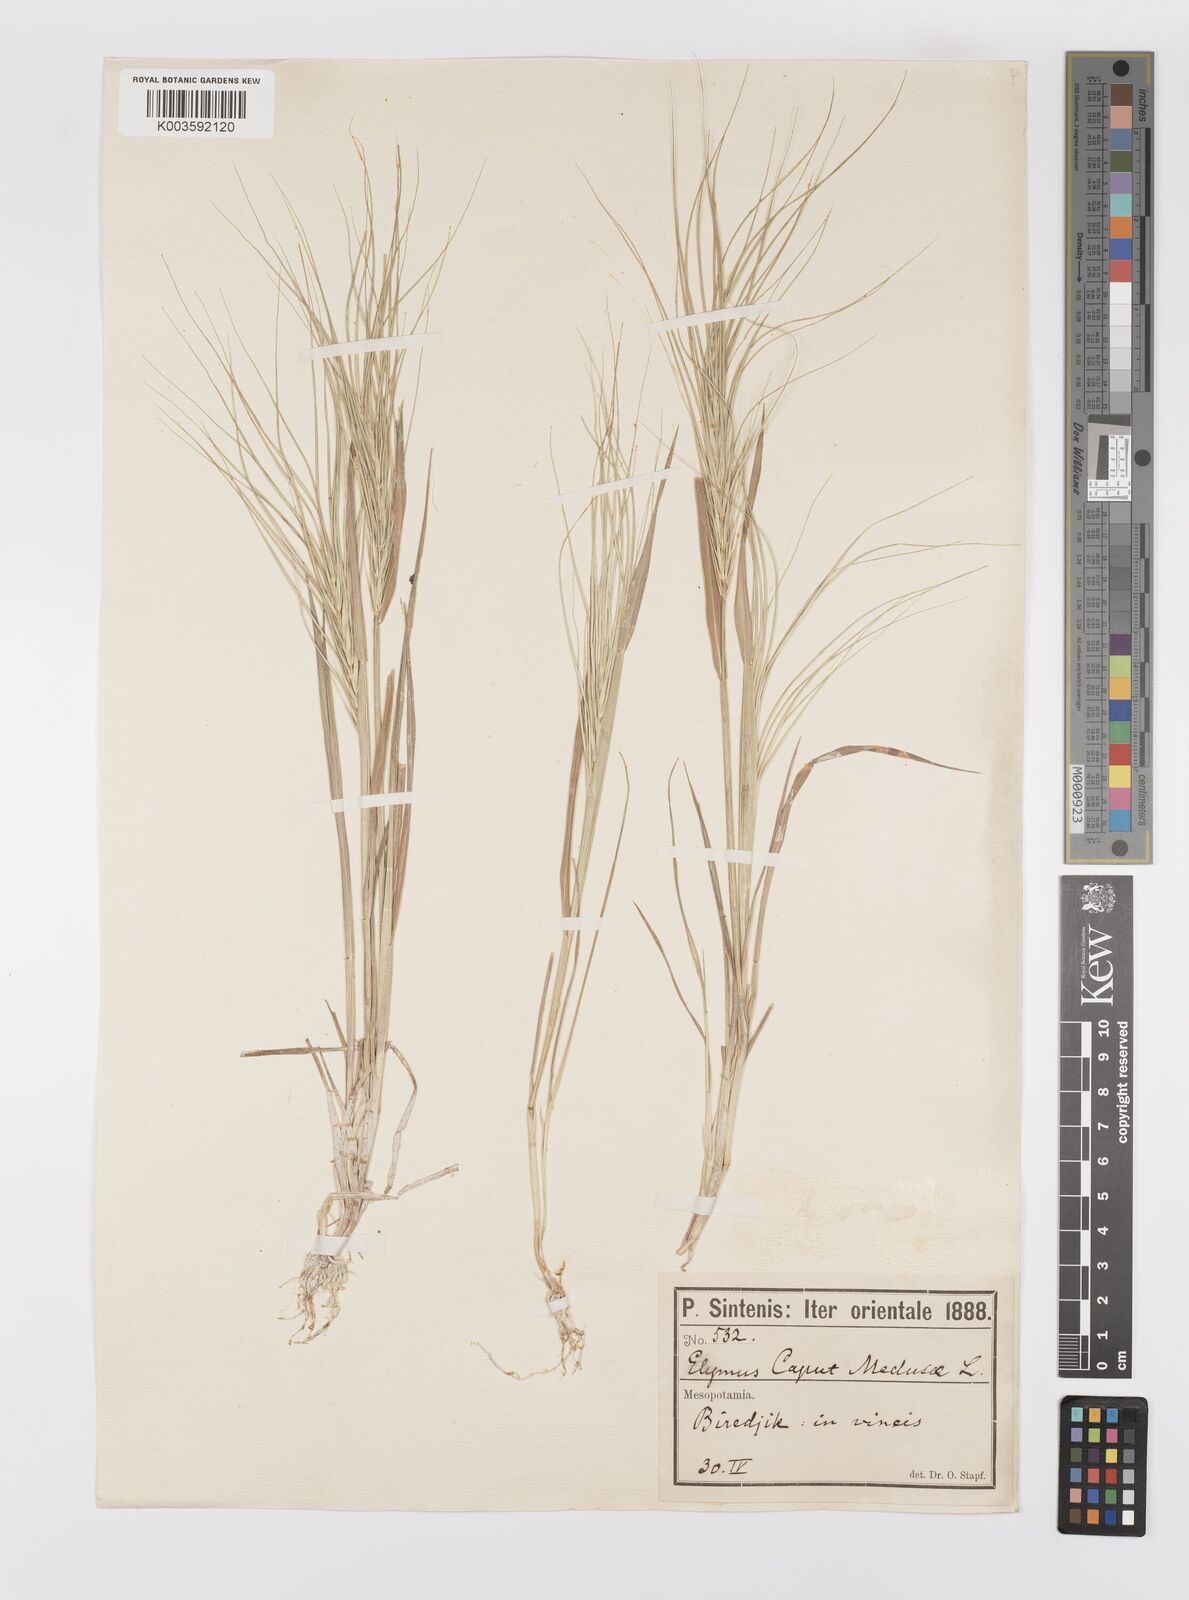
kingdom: Plantae
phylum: Tracheophyta
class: Liliopsida
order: Poales
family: Poaceae
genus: Taeniatherum
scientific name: Taeniatherum caput-medusae
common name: Medusahead
